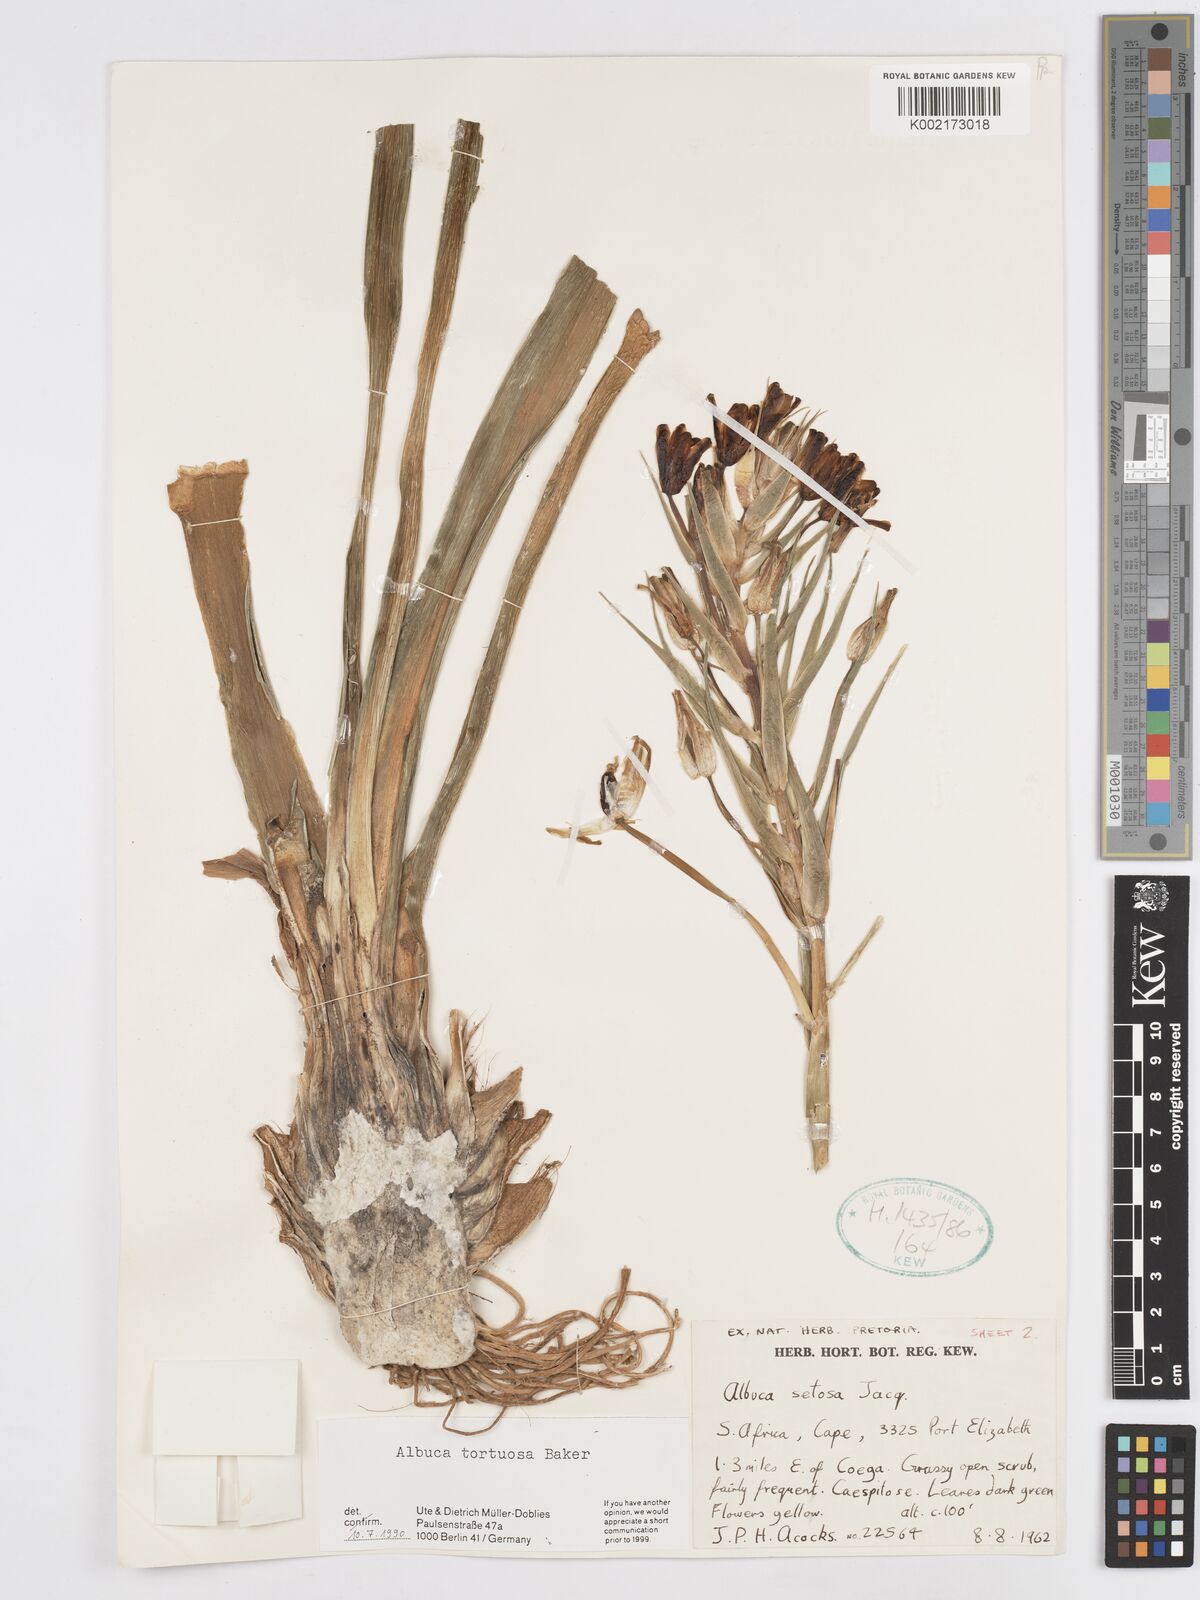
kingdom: Plantae
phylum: Tracheophyta
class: Liliopsida
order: Asparagales
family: Asparagaceae
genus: Albuca
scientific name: Albuca tortuosa
